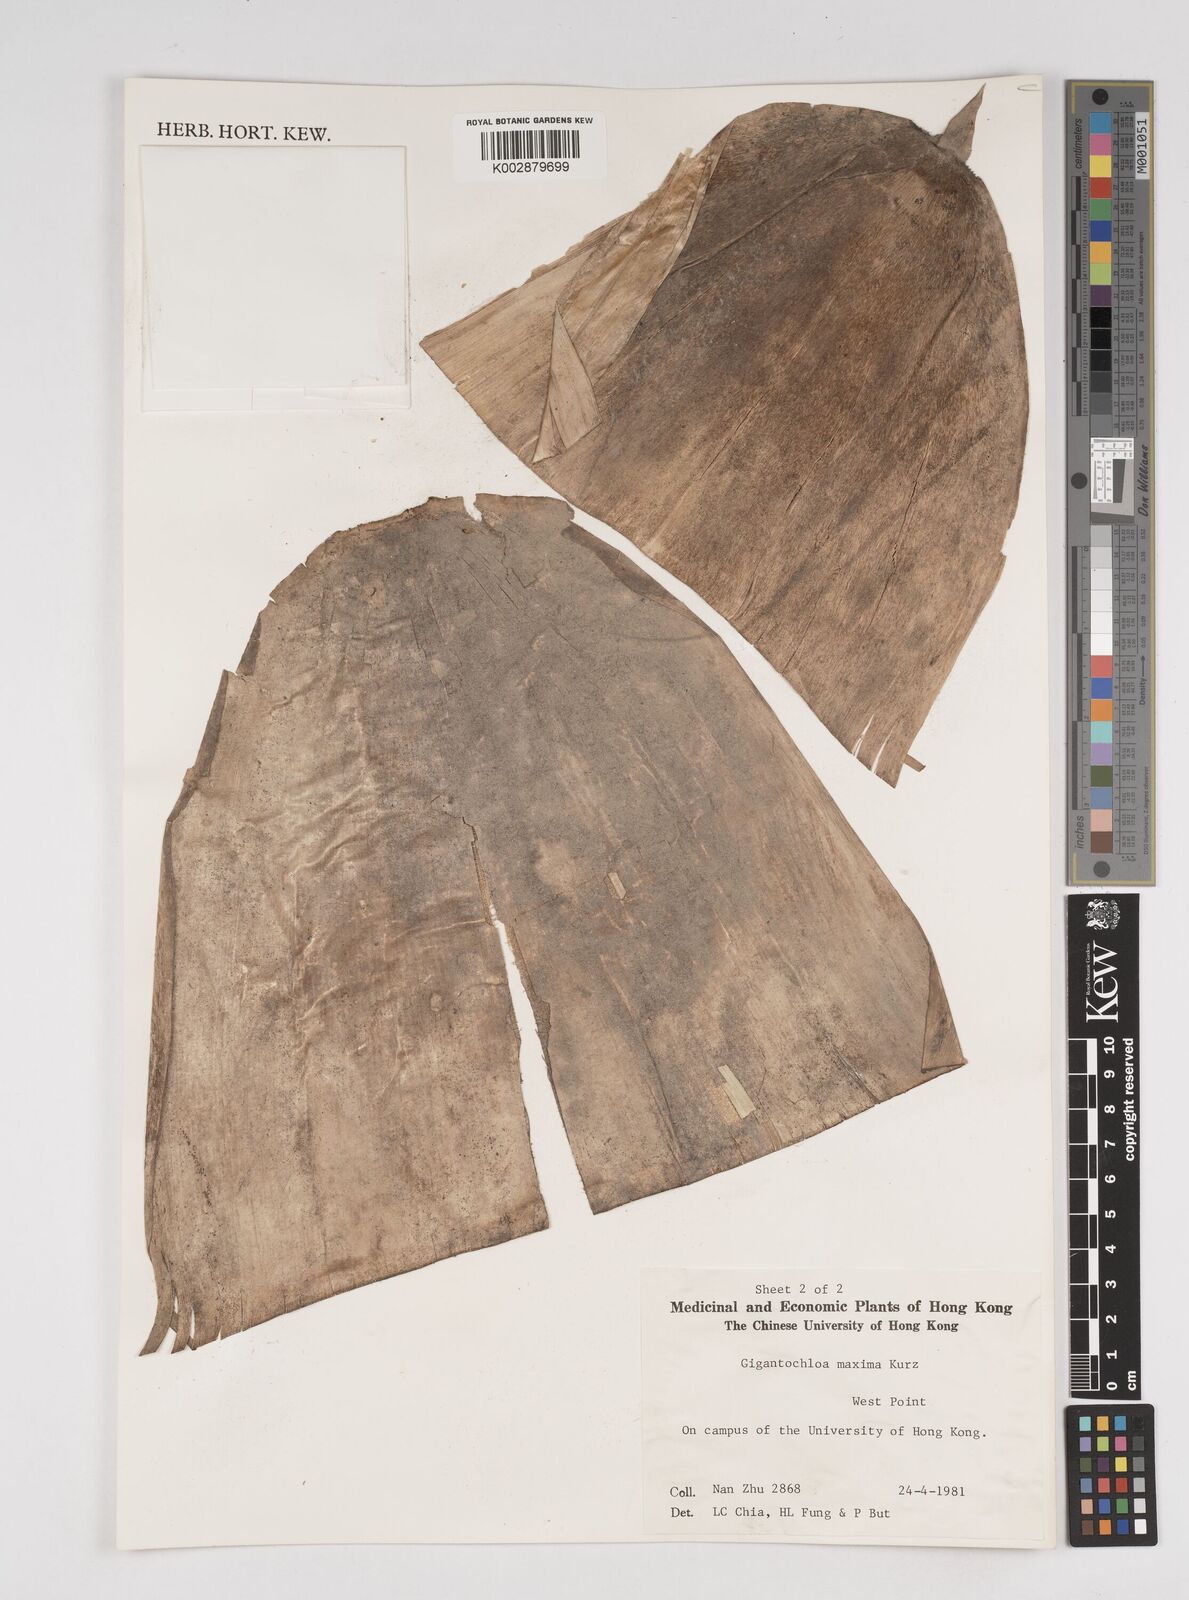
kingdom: Plantae
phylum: Tracheophyta
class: Liliopsida
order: Poales
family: Poaceae
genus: Bambusa
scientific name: Bambusa bambos
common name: Indian thorny bamboo
